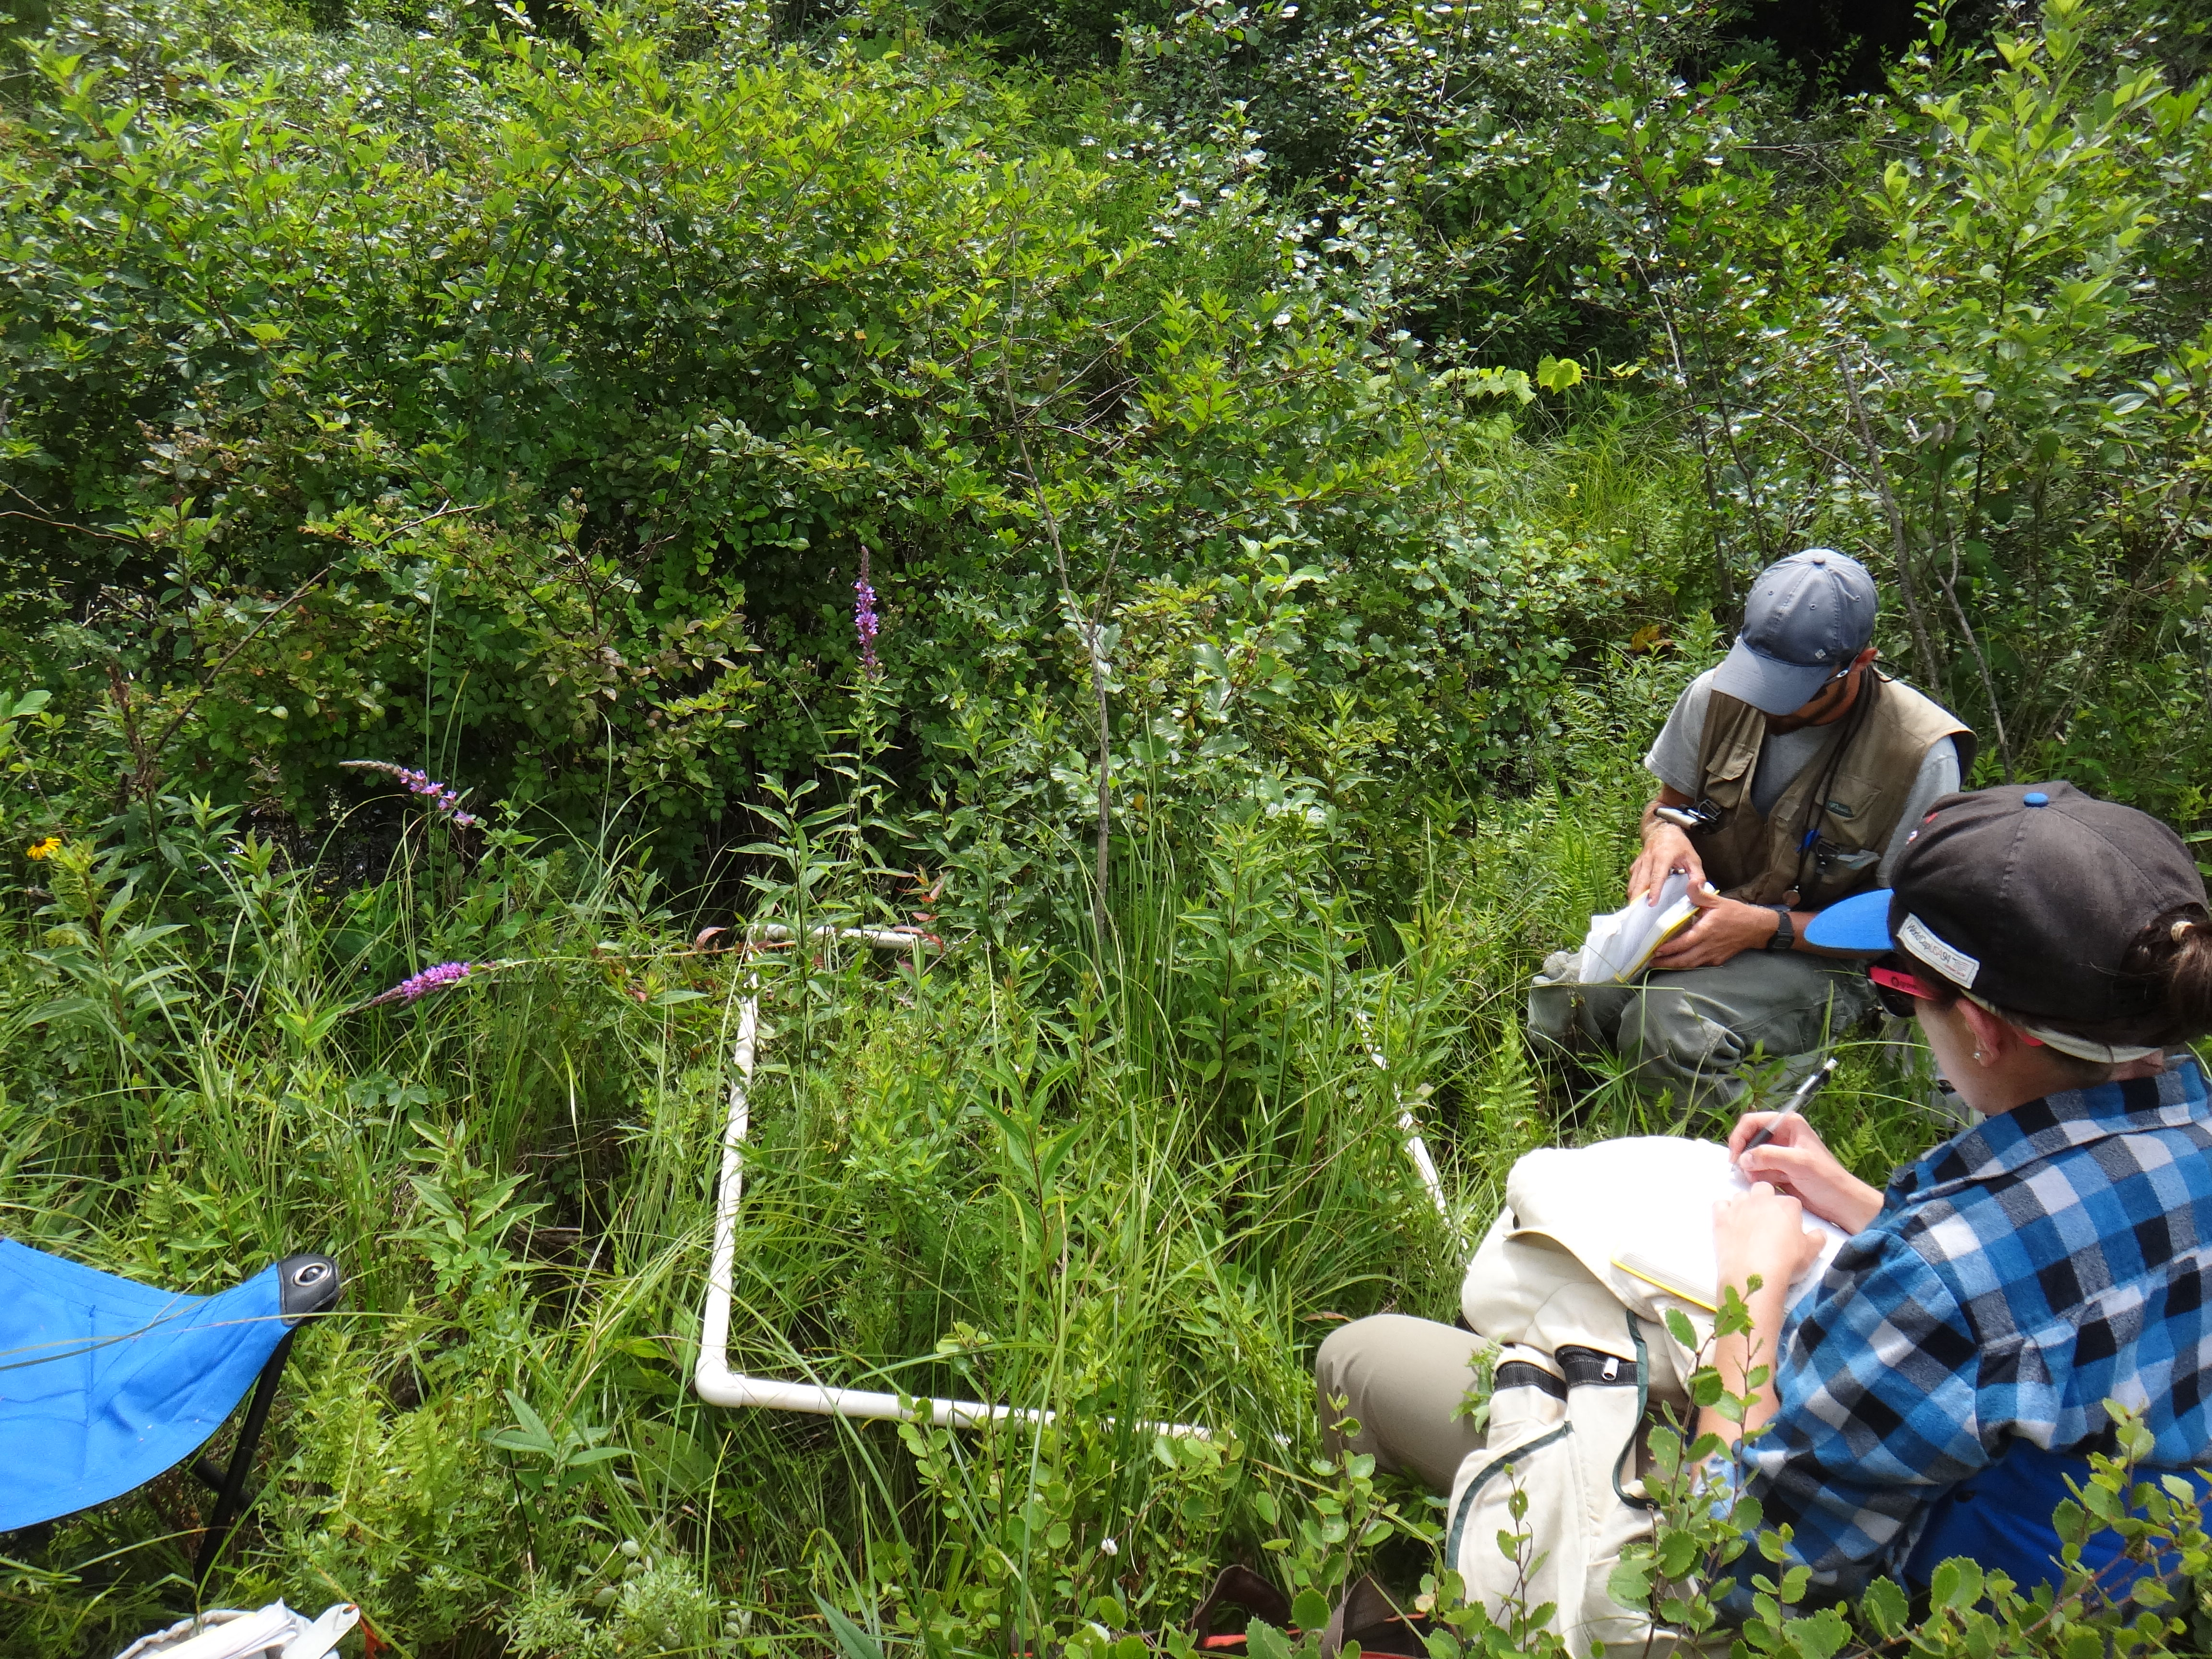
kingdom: Plantae
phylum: Tracheophyta
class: Magnoliopsida
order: Asterales
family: Asteraceae
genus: Solidago
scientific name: Solidago ohioensis
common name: Ohio goldenrod
